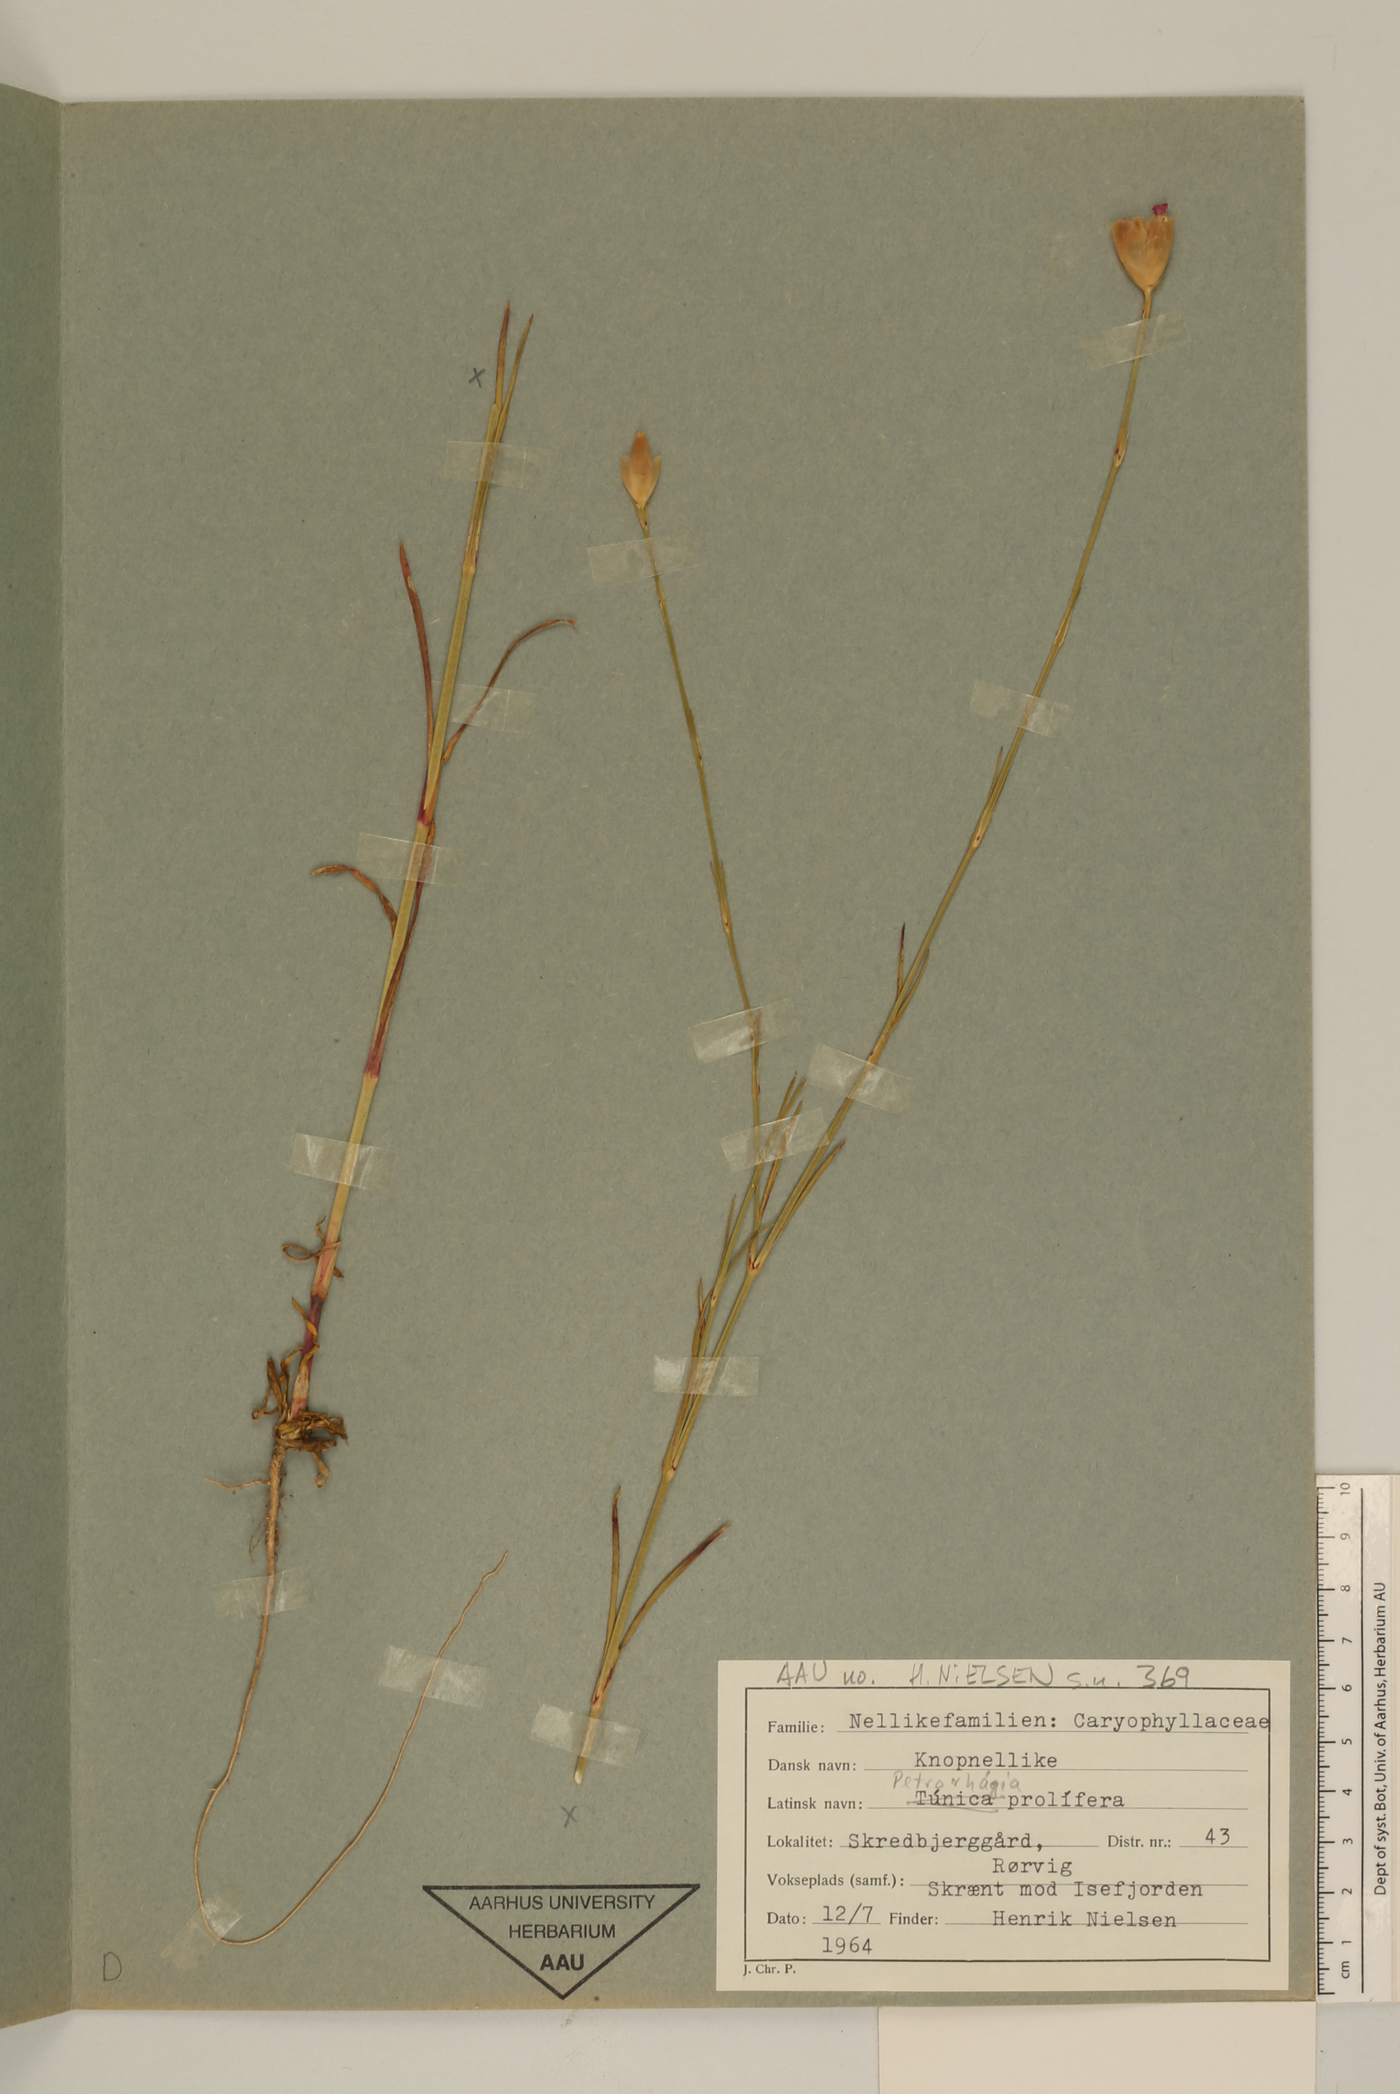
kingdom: Plantae
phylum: Tracheophyta
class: Magnoliopsida
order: Caryophyllales
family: Caryophyllaceae
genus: Petrorhagia
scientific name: Petrorhagia prolifera
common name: Proliferous pink
